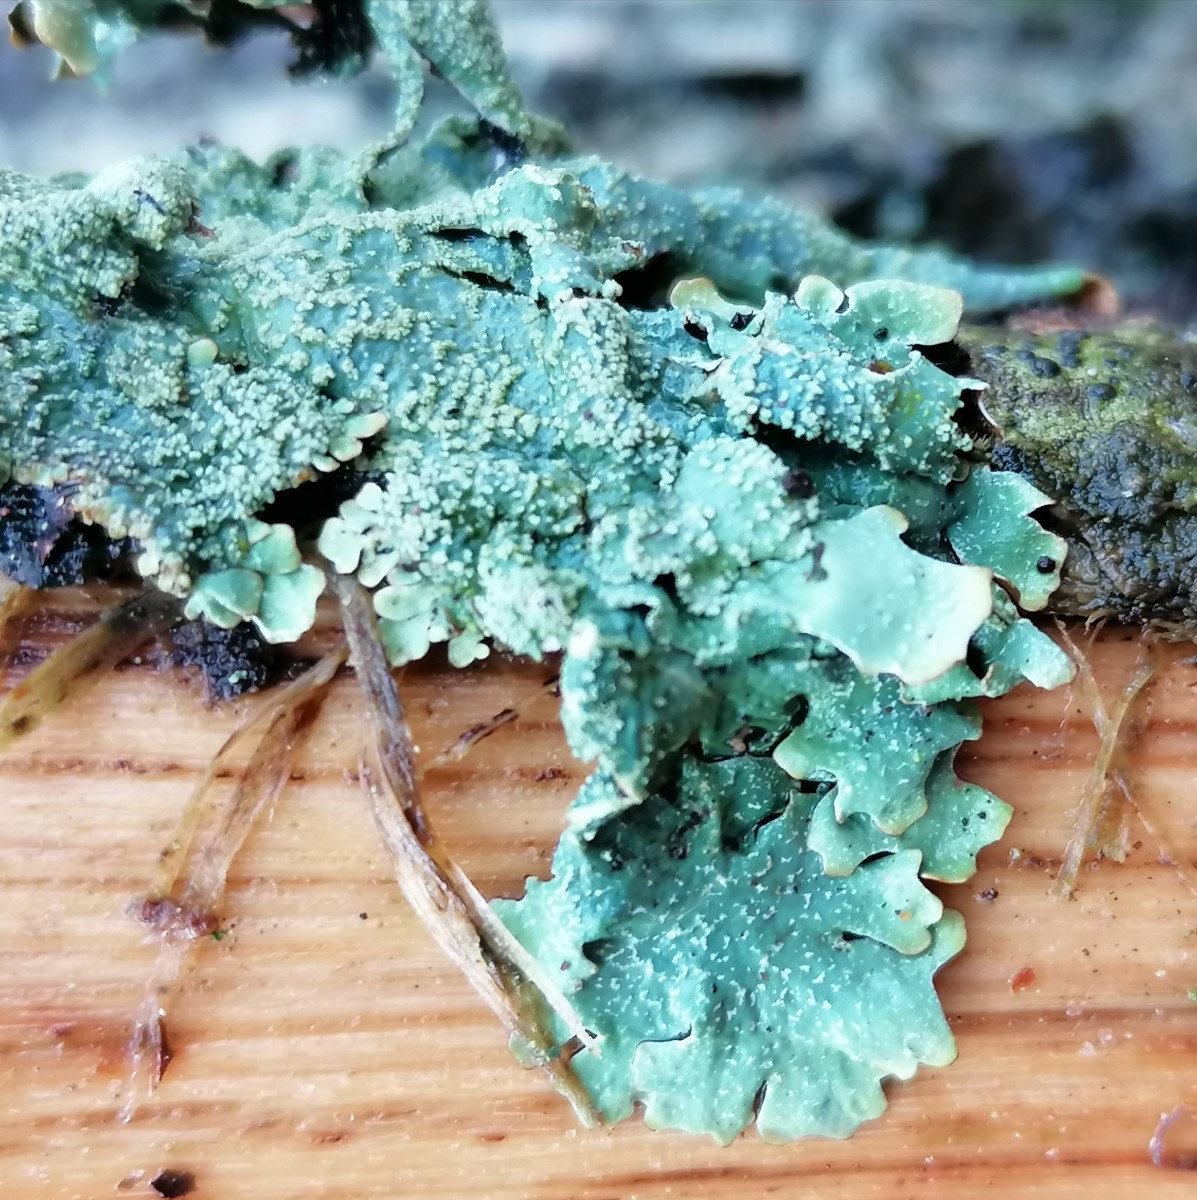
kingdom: Fungi
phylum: Ascomycota
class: Lecanoromycetes
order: Lecanorales
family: Parmeliaceae
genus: Parmelia
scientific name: Parmelia submontana
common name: langlobet skållav
